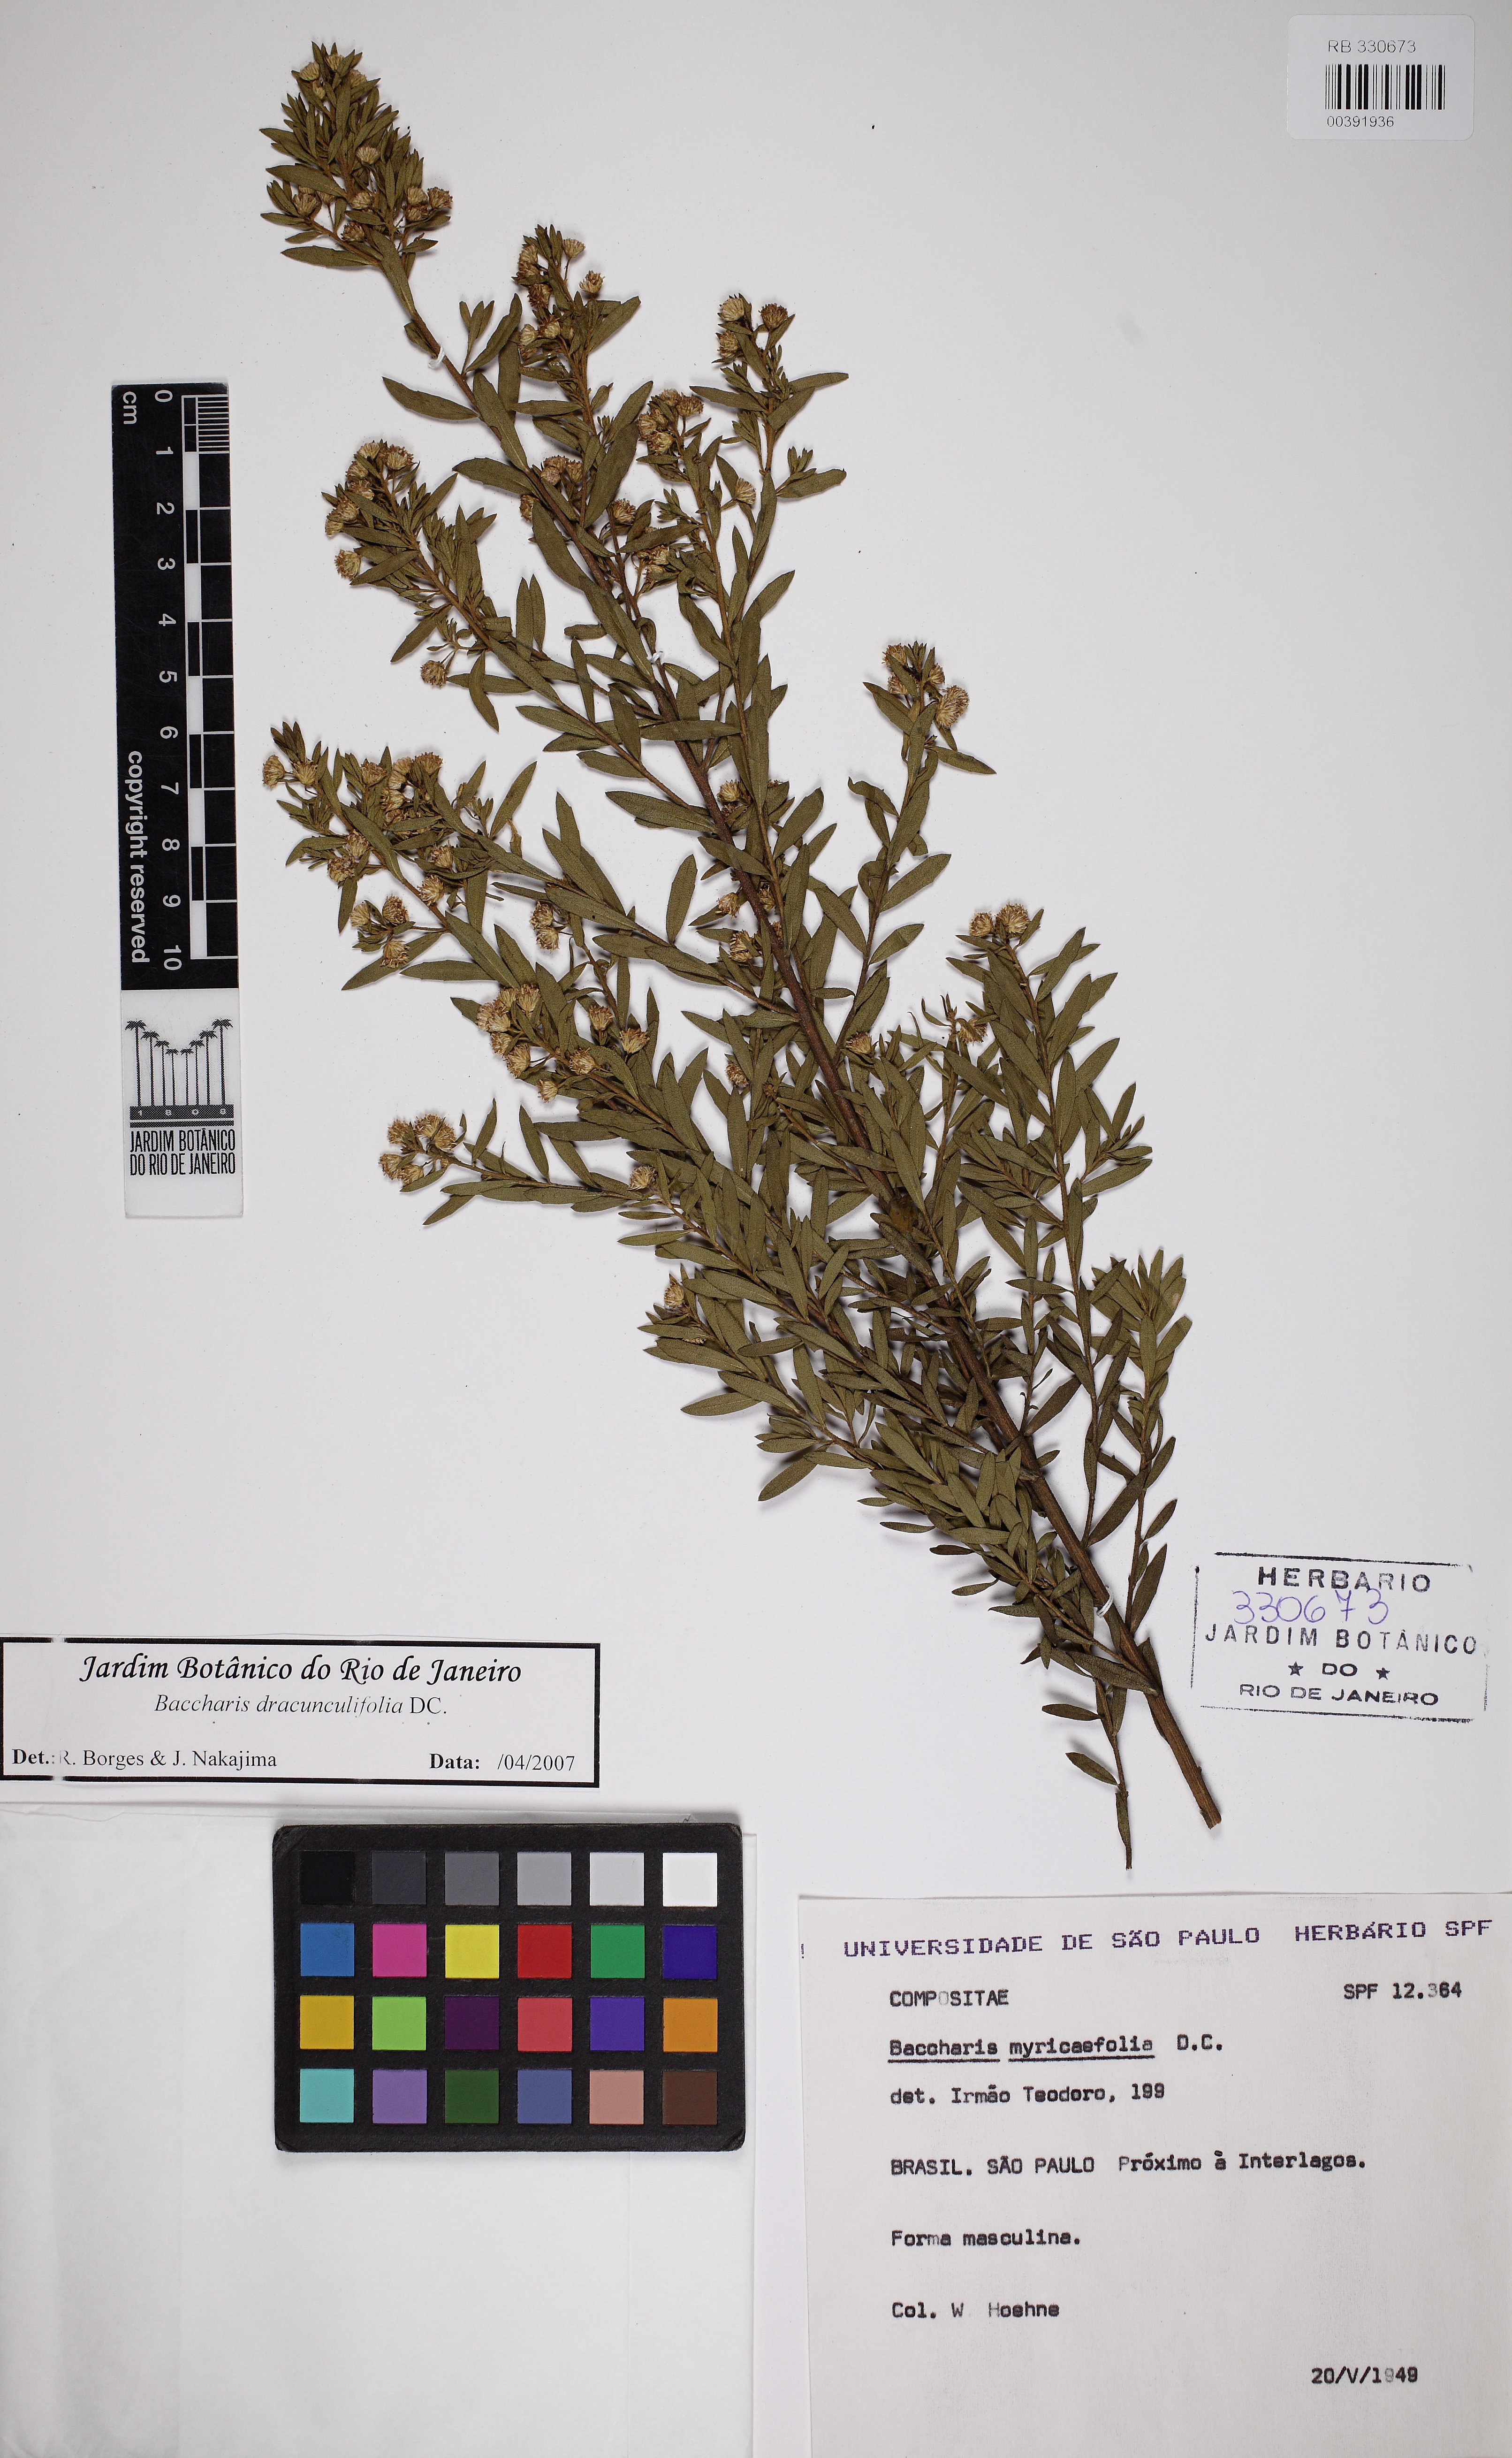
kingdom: Plantae
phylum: Tracheophyta
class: Magnoliopsida
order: Asterales
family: Asteraceae
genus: Baccharis
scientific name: Baccharis dracunculifolia
